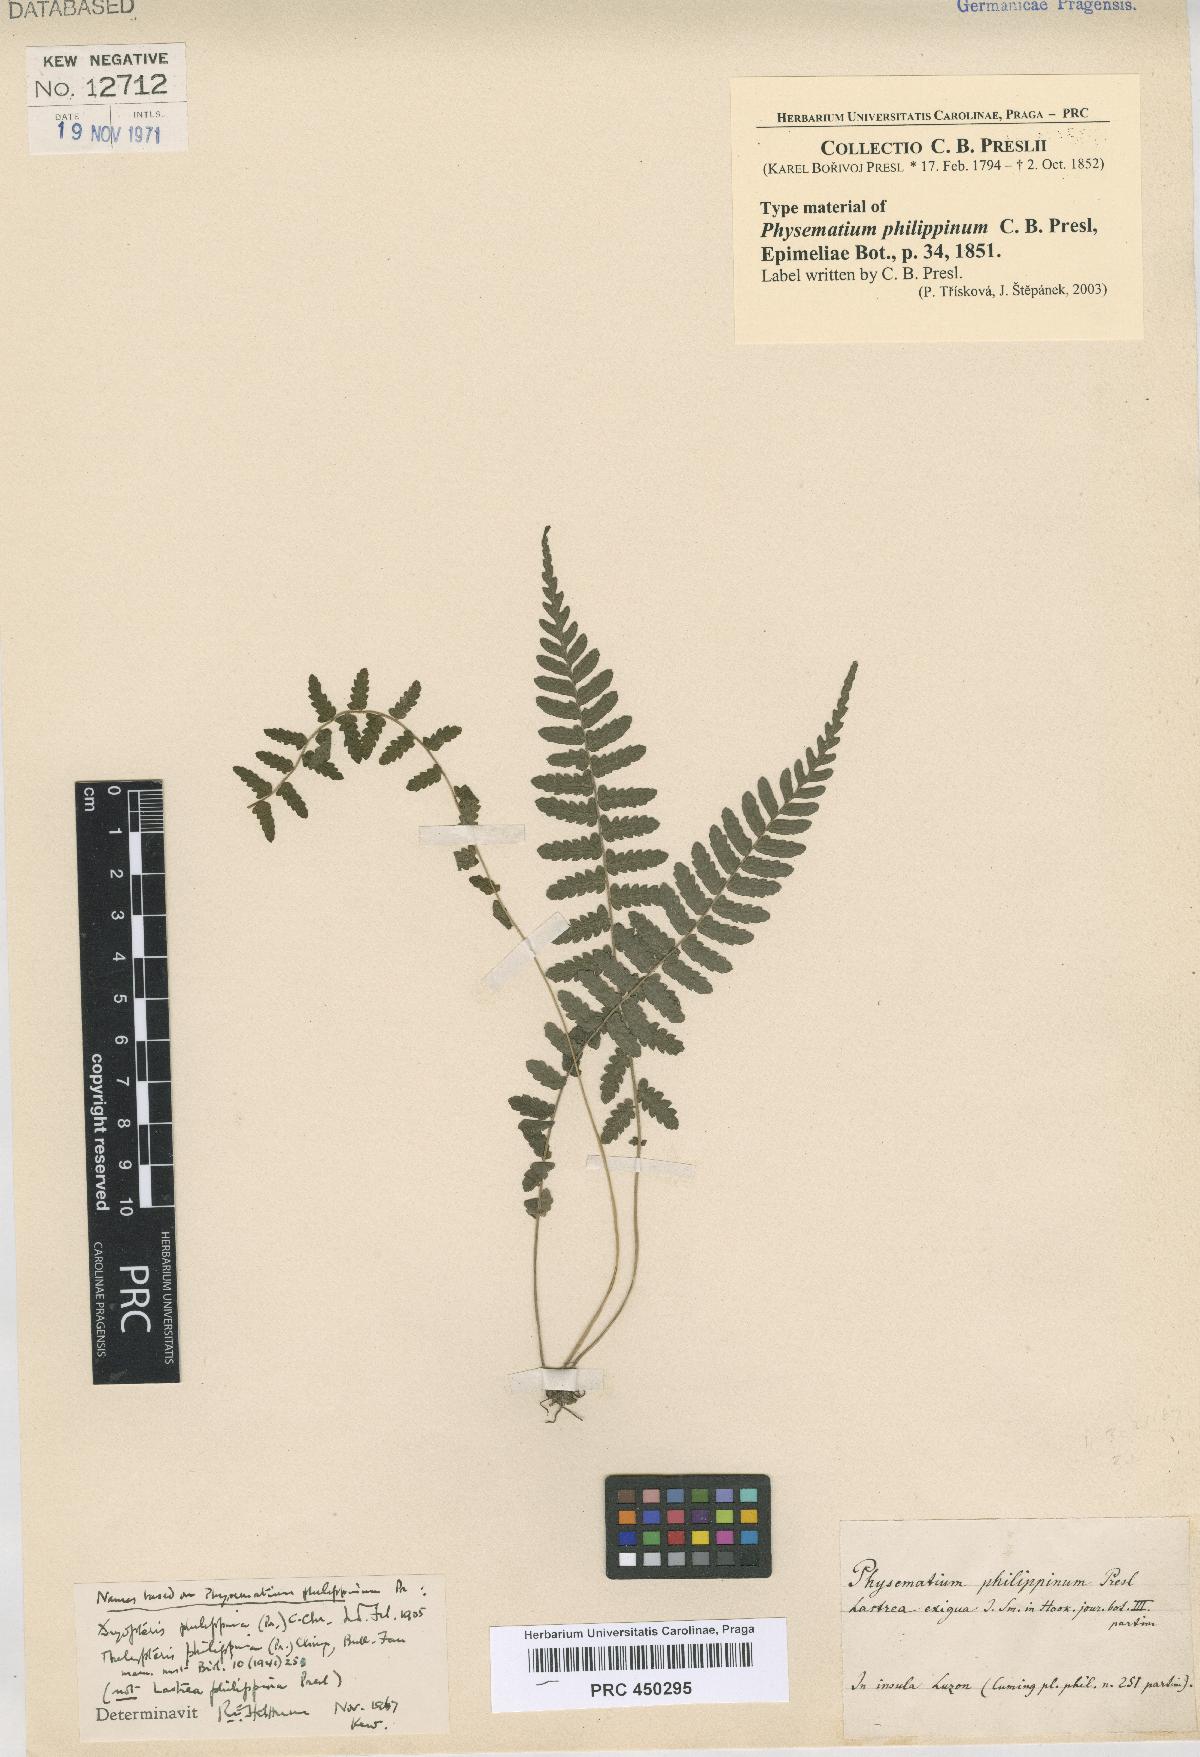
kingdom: Plantae
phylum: Tracheophyta
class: Polypodiopsida
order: Polypodiales
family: Thelypteridaceae
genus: Pronephrium
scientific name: Pronephrium philippinum
